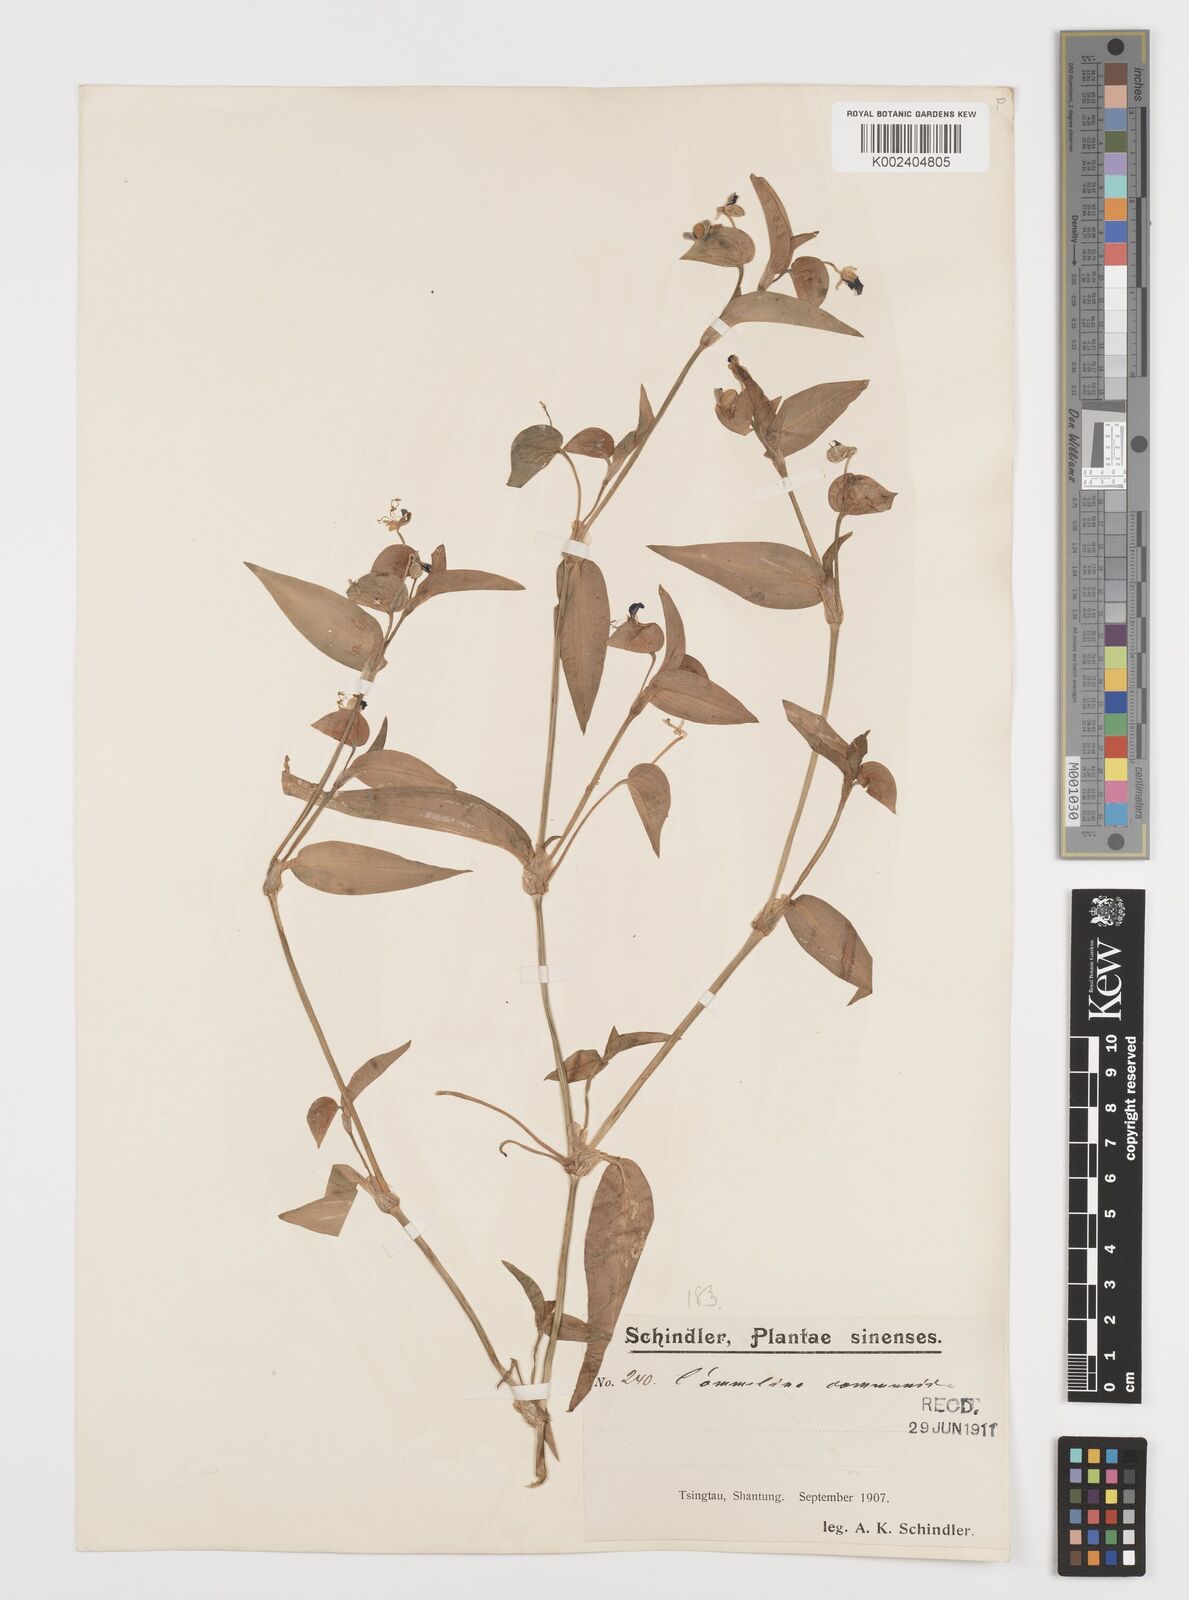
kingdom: Plantae
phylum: Tracheophyta
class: Liliopsida
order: Commelinales
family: Commelinaceae
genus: Commelina
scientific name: Commelina communis
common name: Asiatic dayflower
